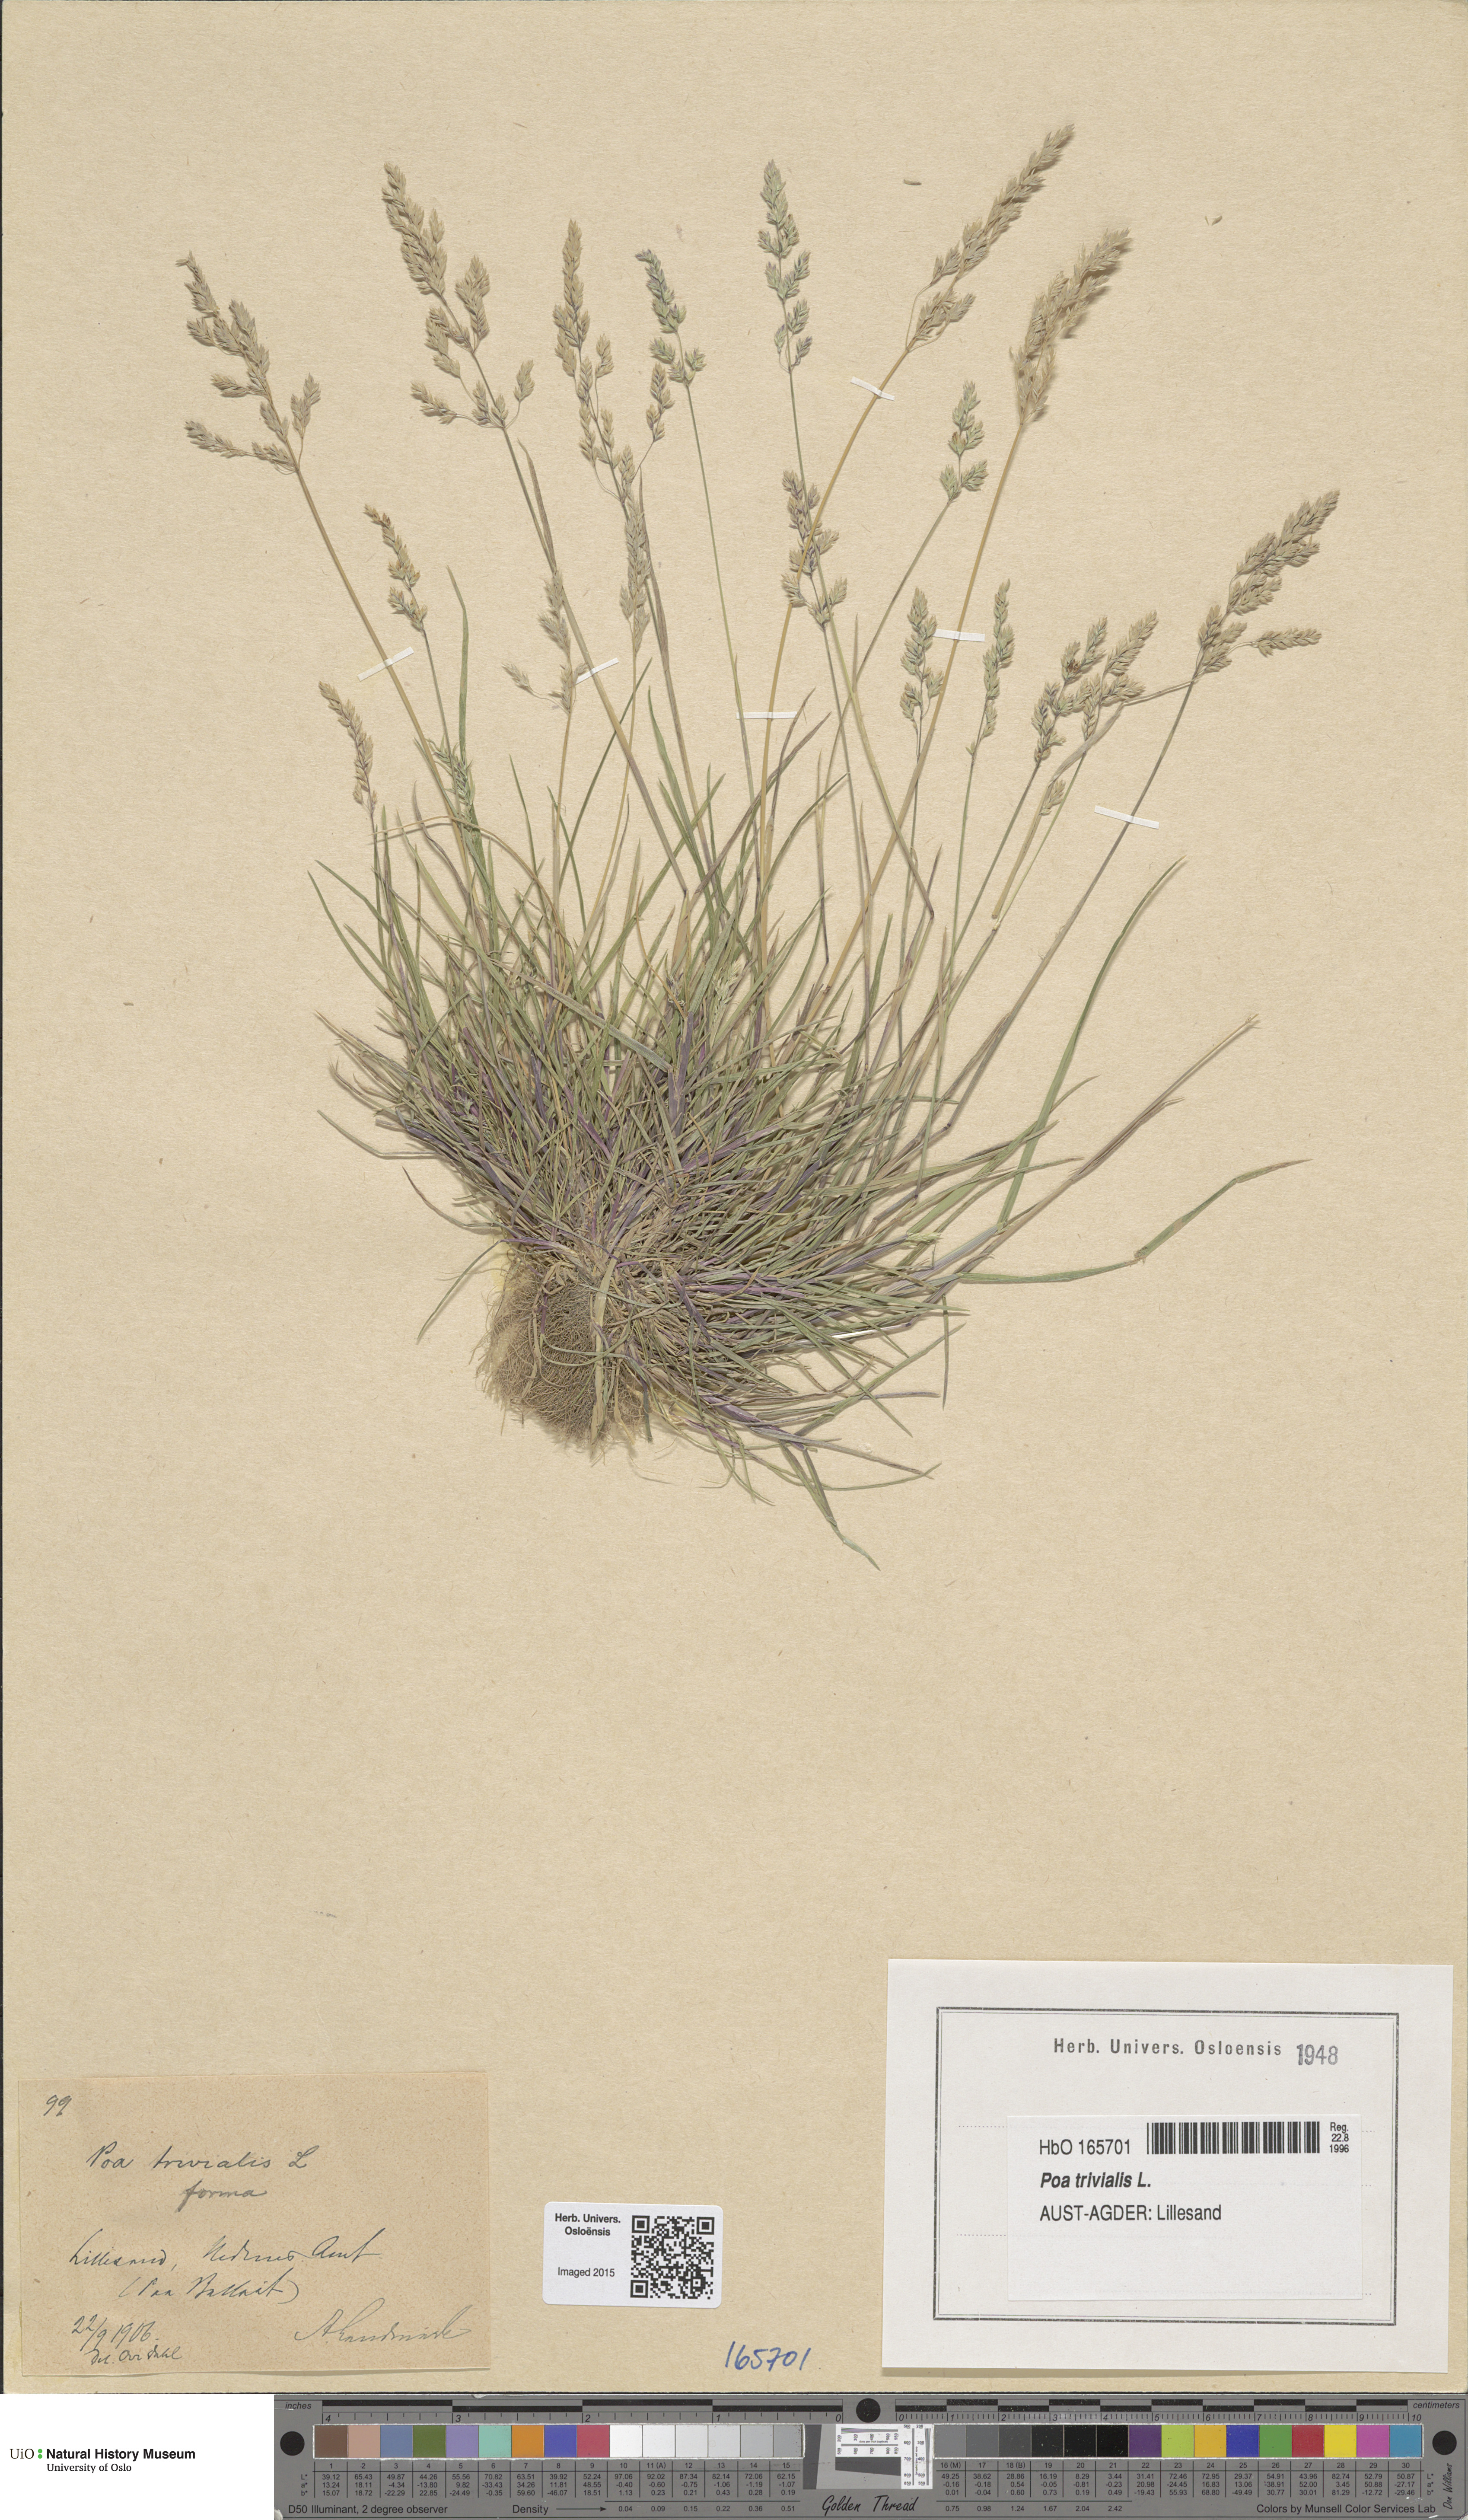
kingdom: Plantae
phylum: Tracheophyta
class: Liliopsida
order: Poales
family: Poaceae
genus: Poa
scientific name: Poa trivialis
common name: Rough bluegrass
